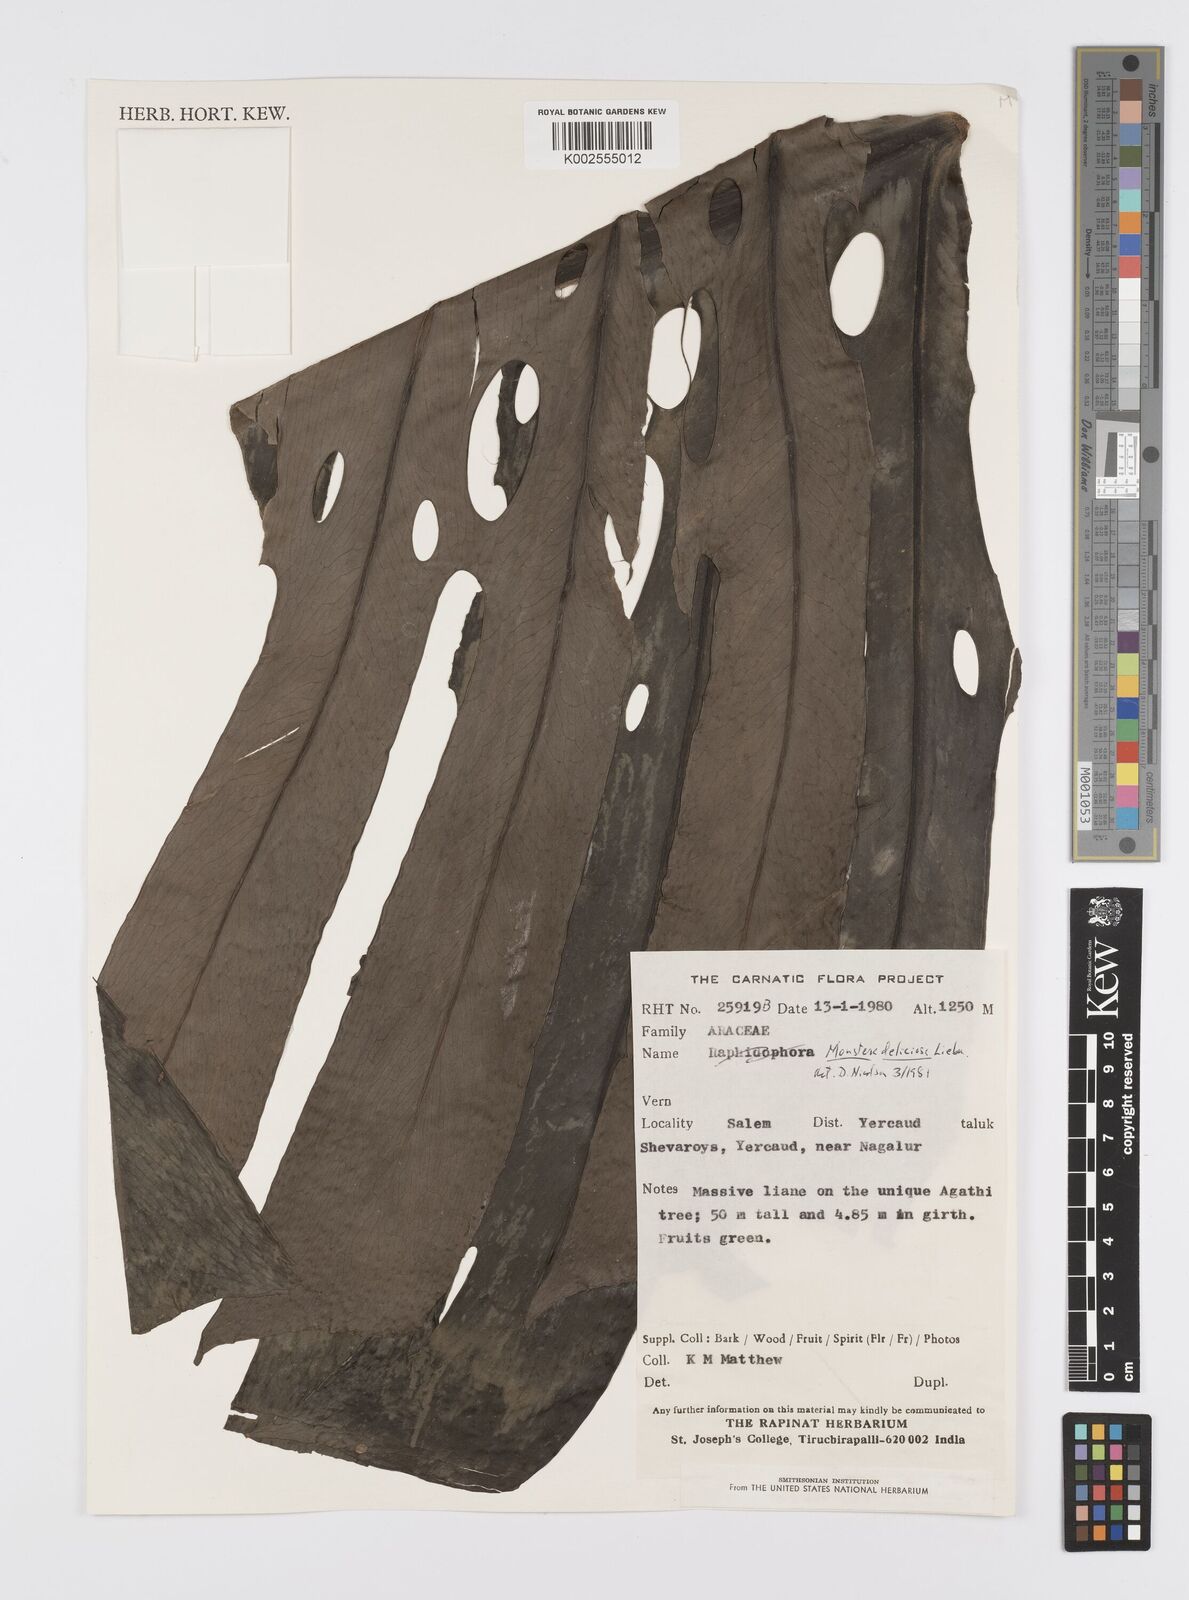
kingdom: Plantae
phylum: Tracheophyta
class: Liliopsida
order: Alismatales
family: Araceae
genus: Monstera
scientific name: Monstera deliciosa
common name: Cut-leaf-philodendron
